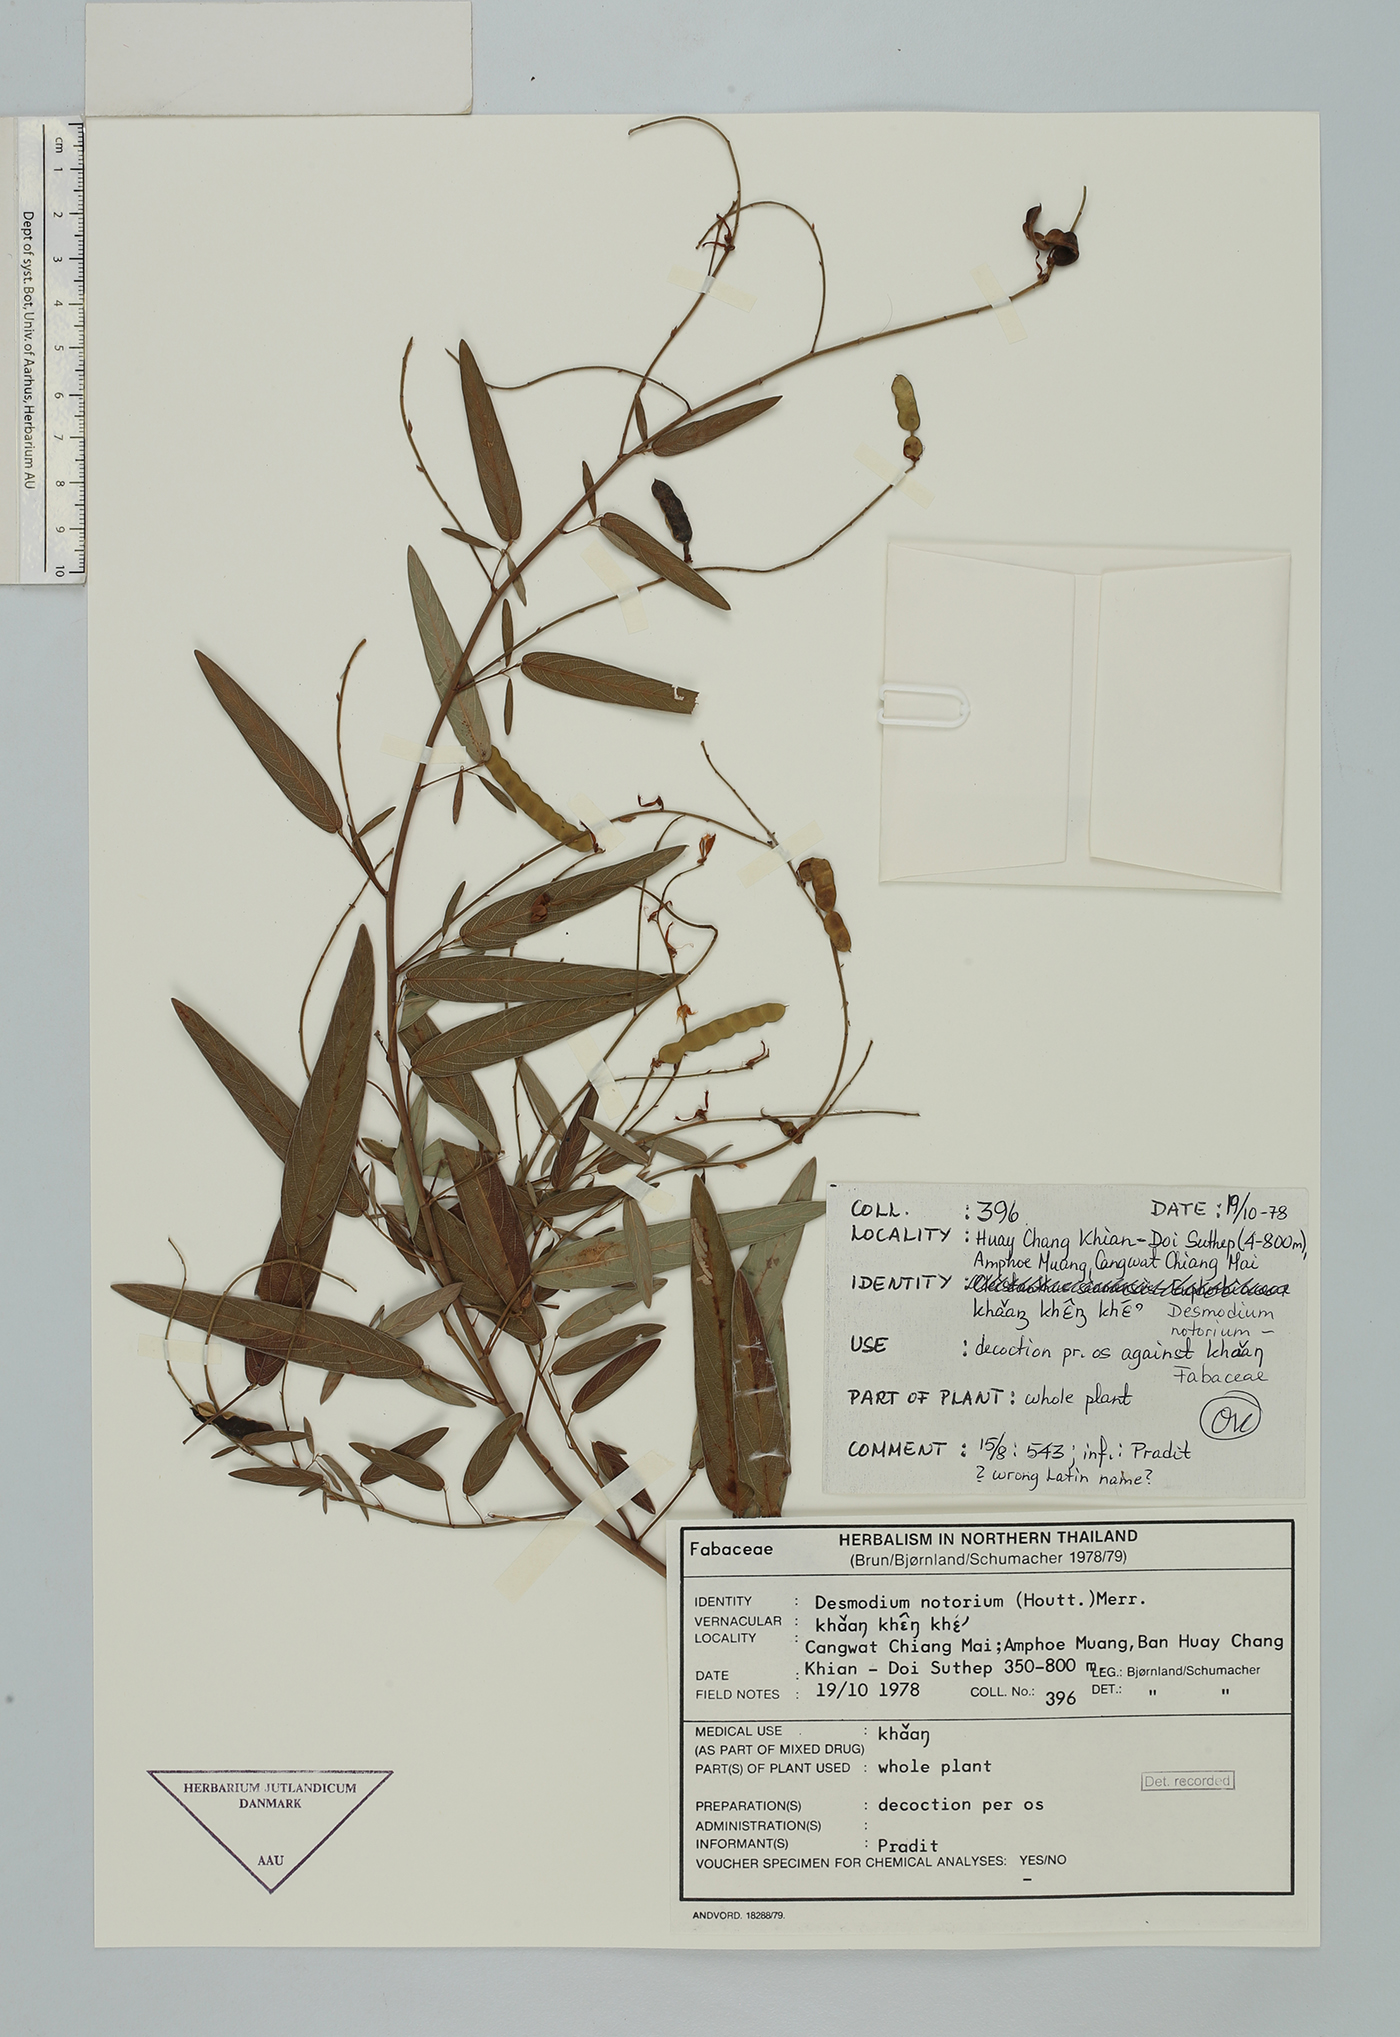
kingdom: Plantae
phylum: Tracheophyta
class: Magnoliopsida
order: Fabales
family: Fabaceae
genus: Codariocalyx
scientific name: Codariocalyx motorius
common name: Telegraph-plant
